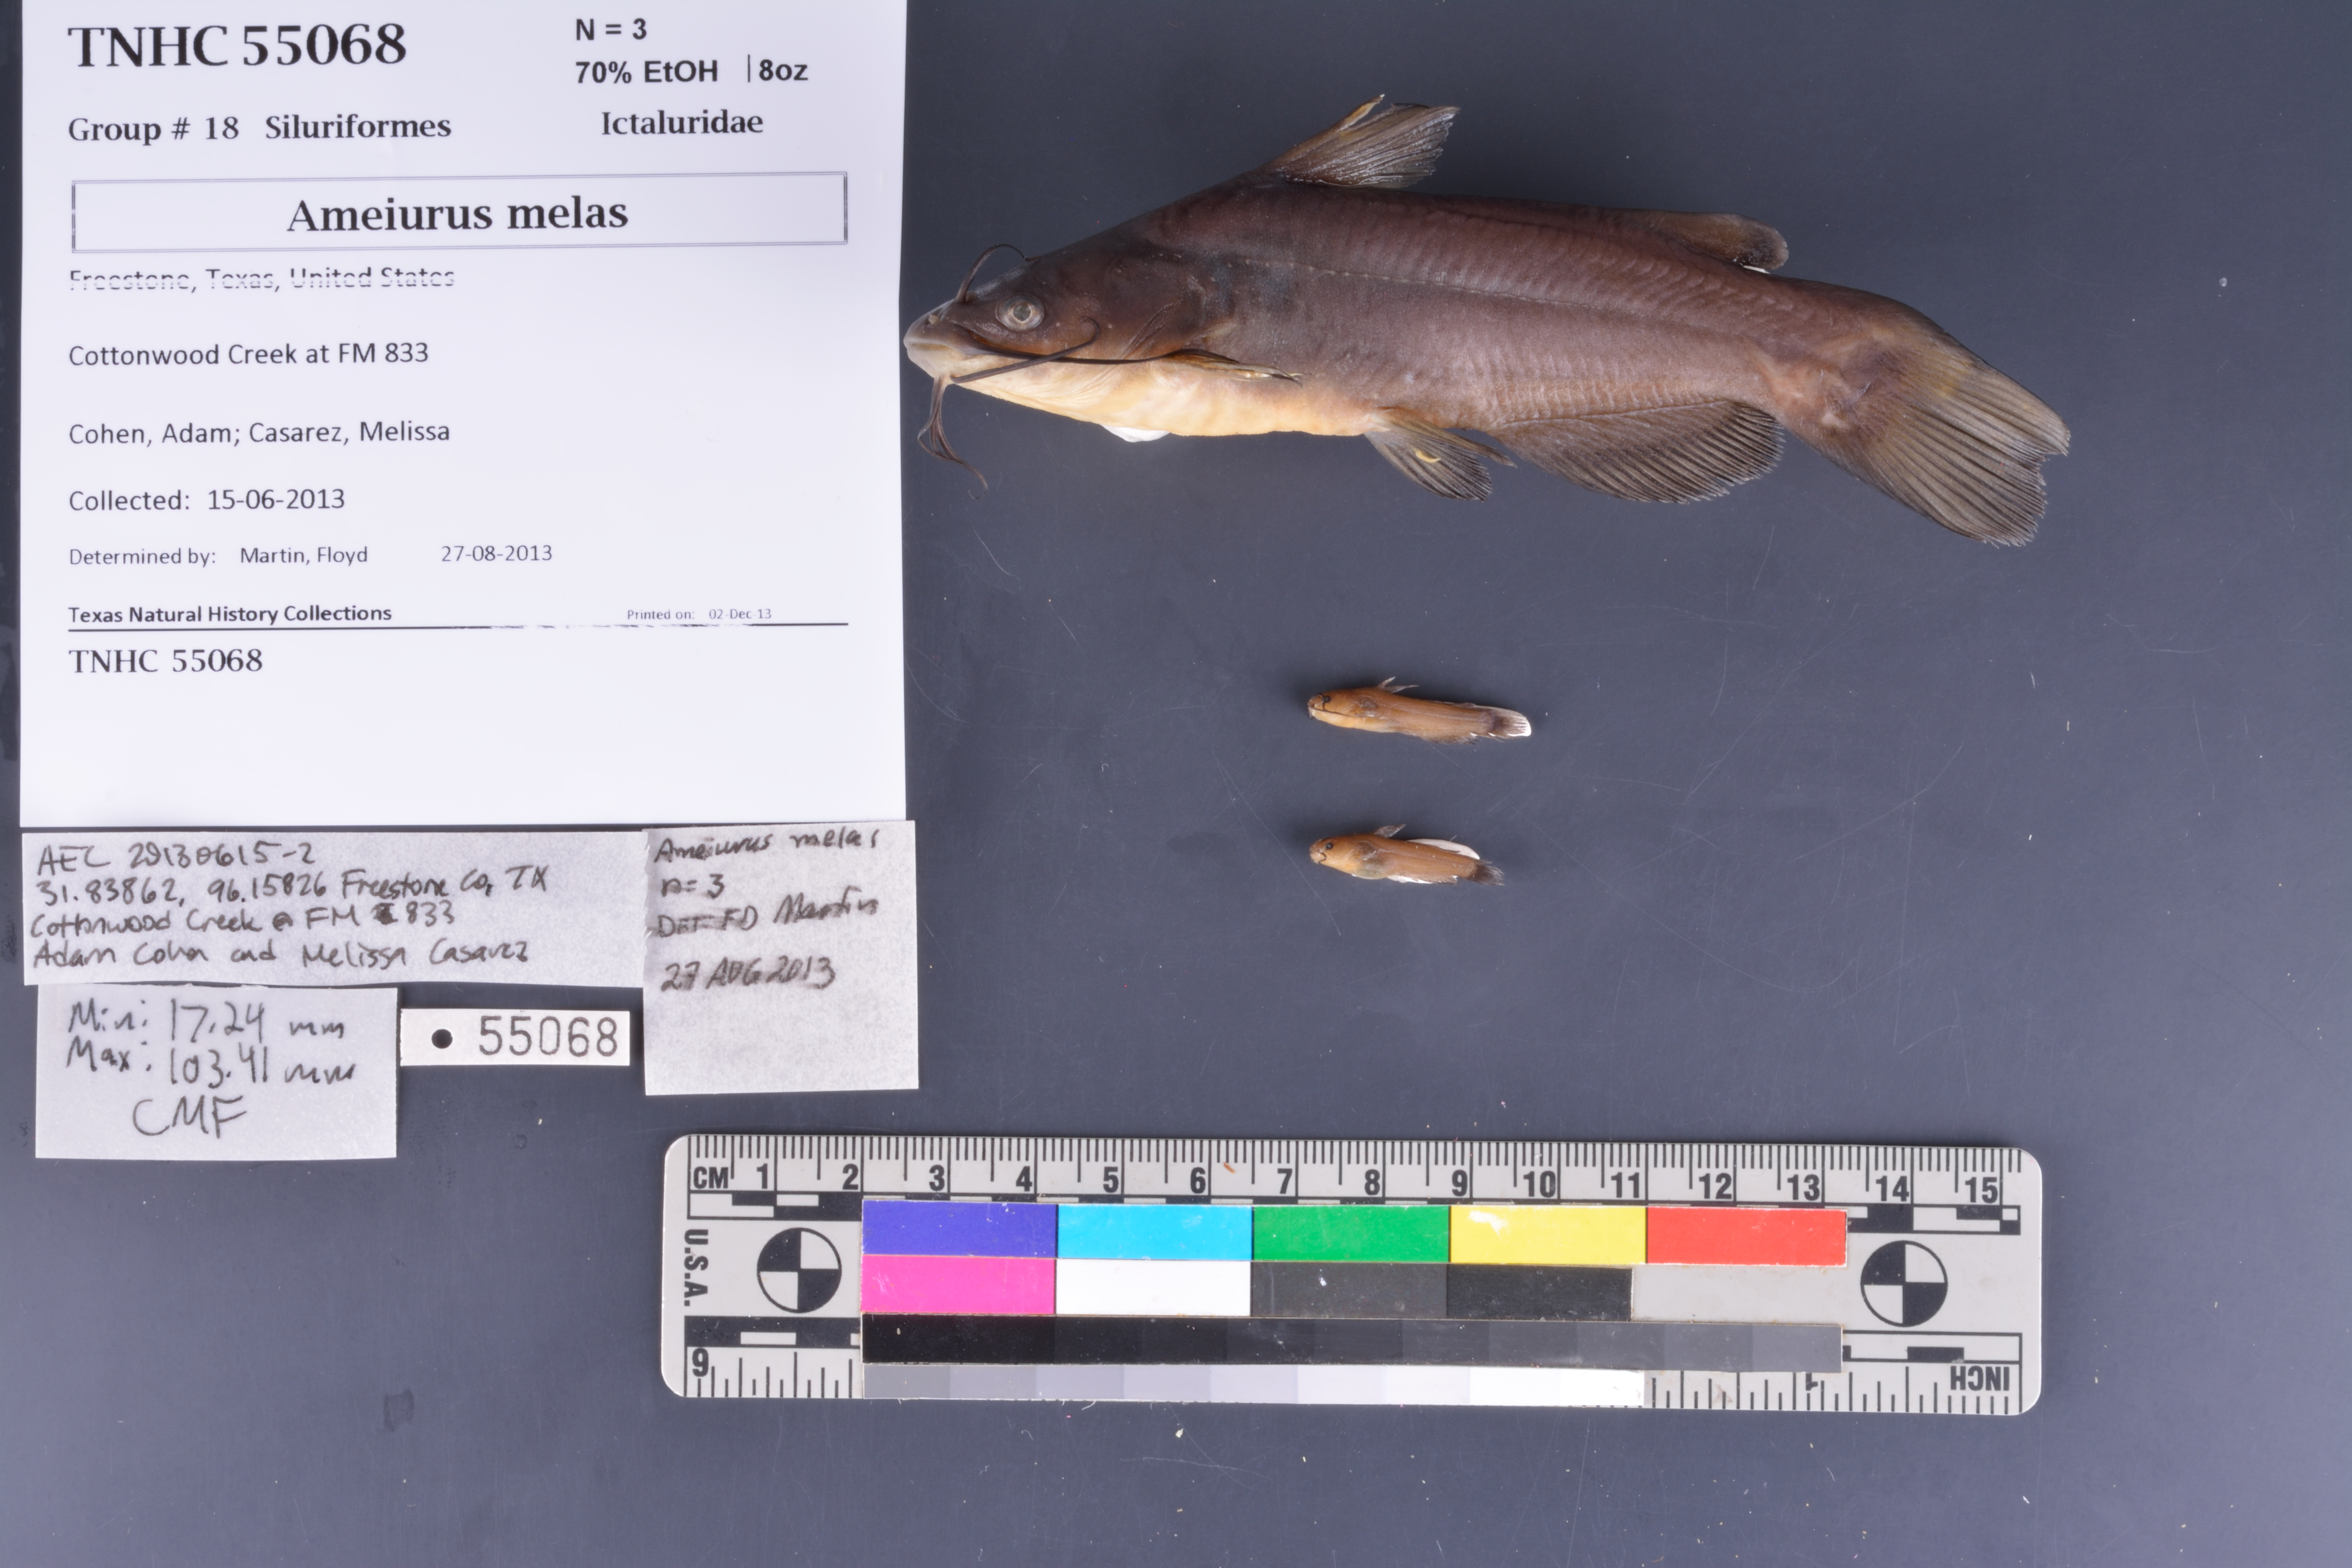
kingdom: Animalia
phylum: Chordata
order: Siluriformes
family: Ictaluridae
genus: Ameiurus
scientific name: Ameiurus melas
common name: Black bullhead
